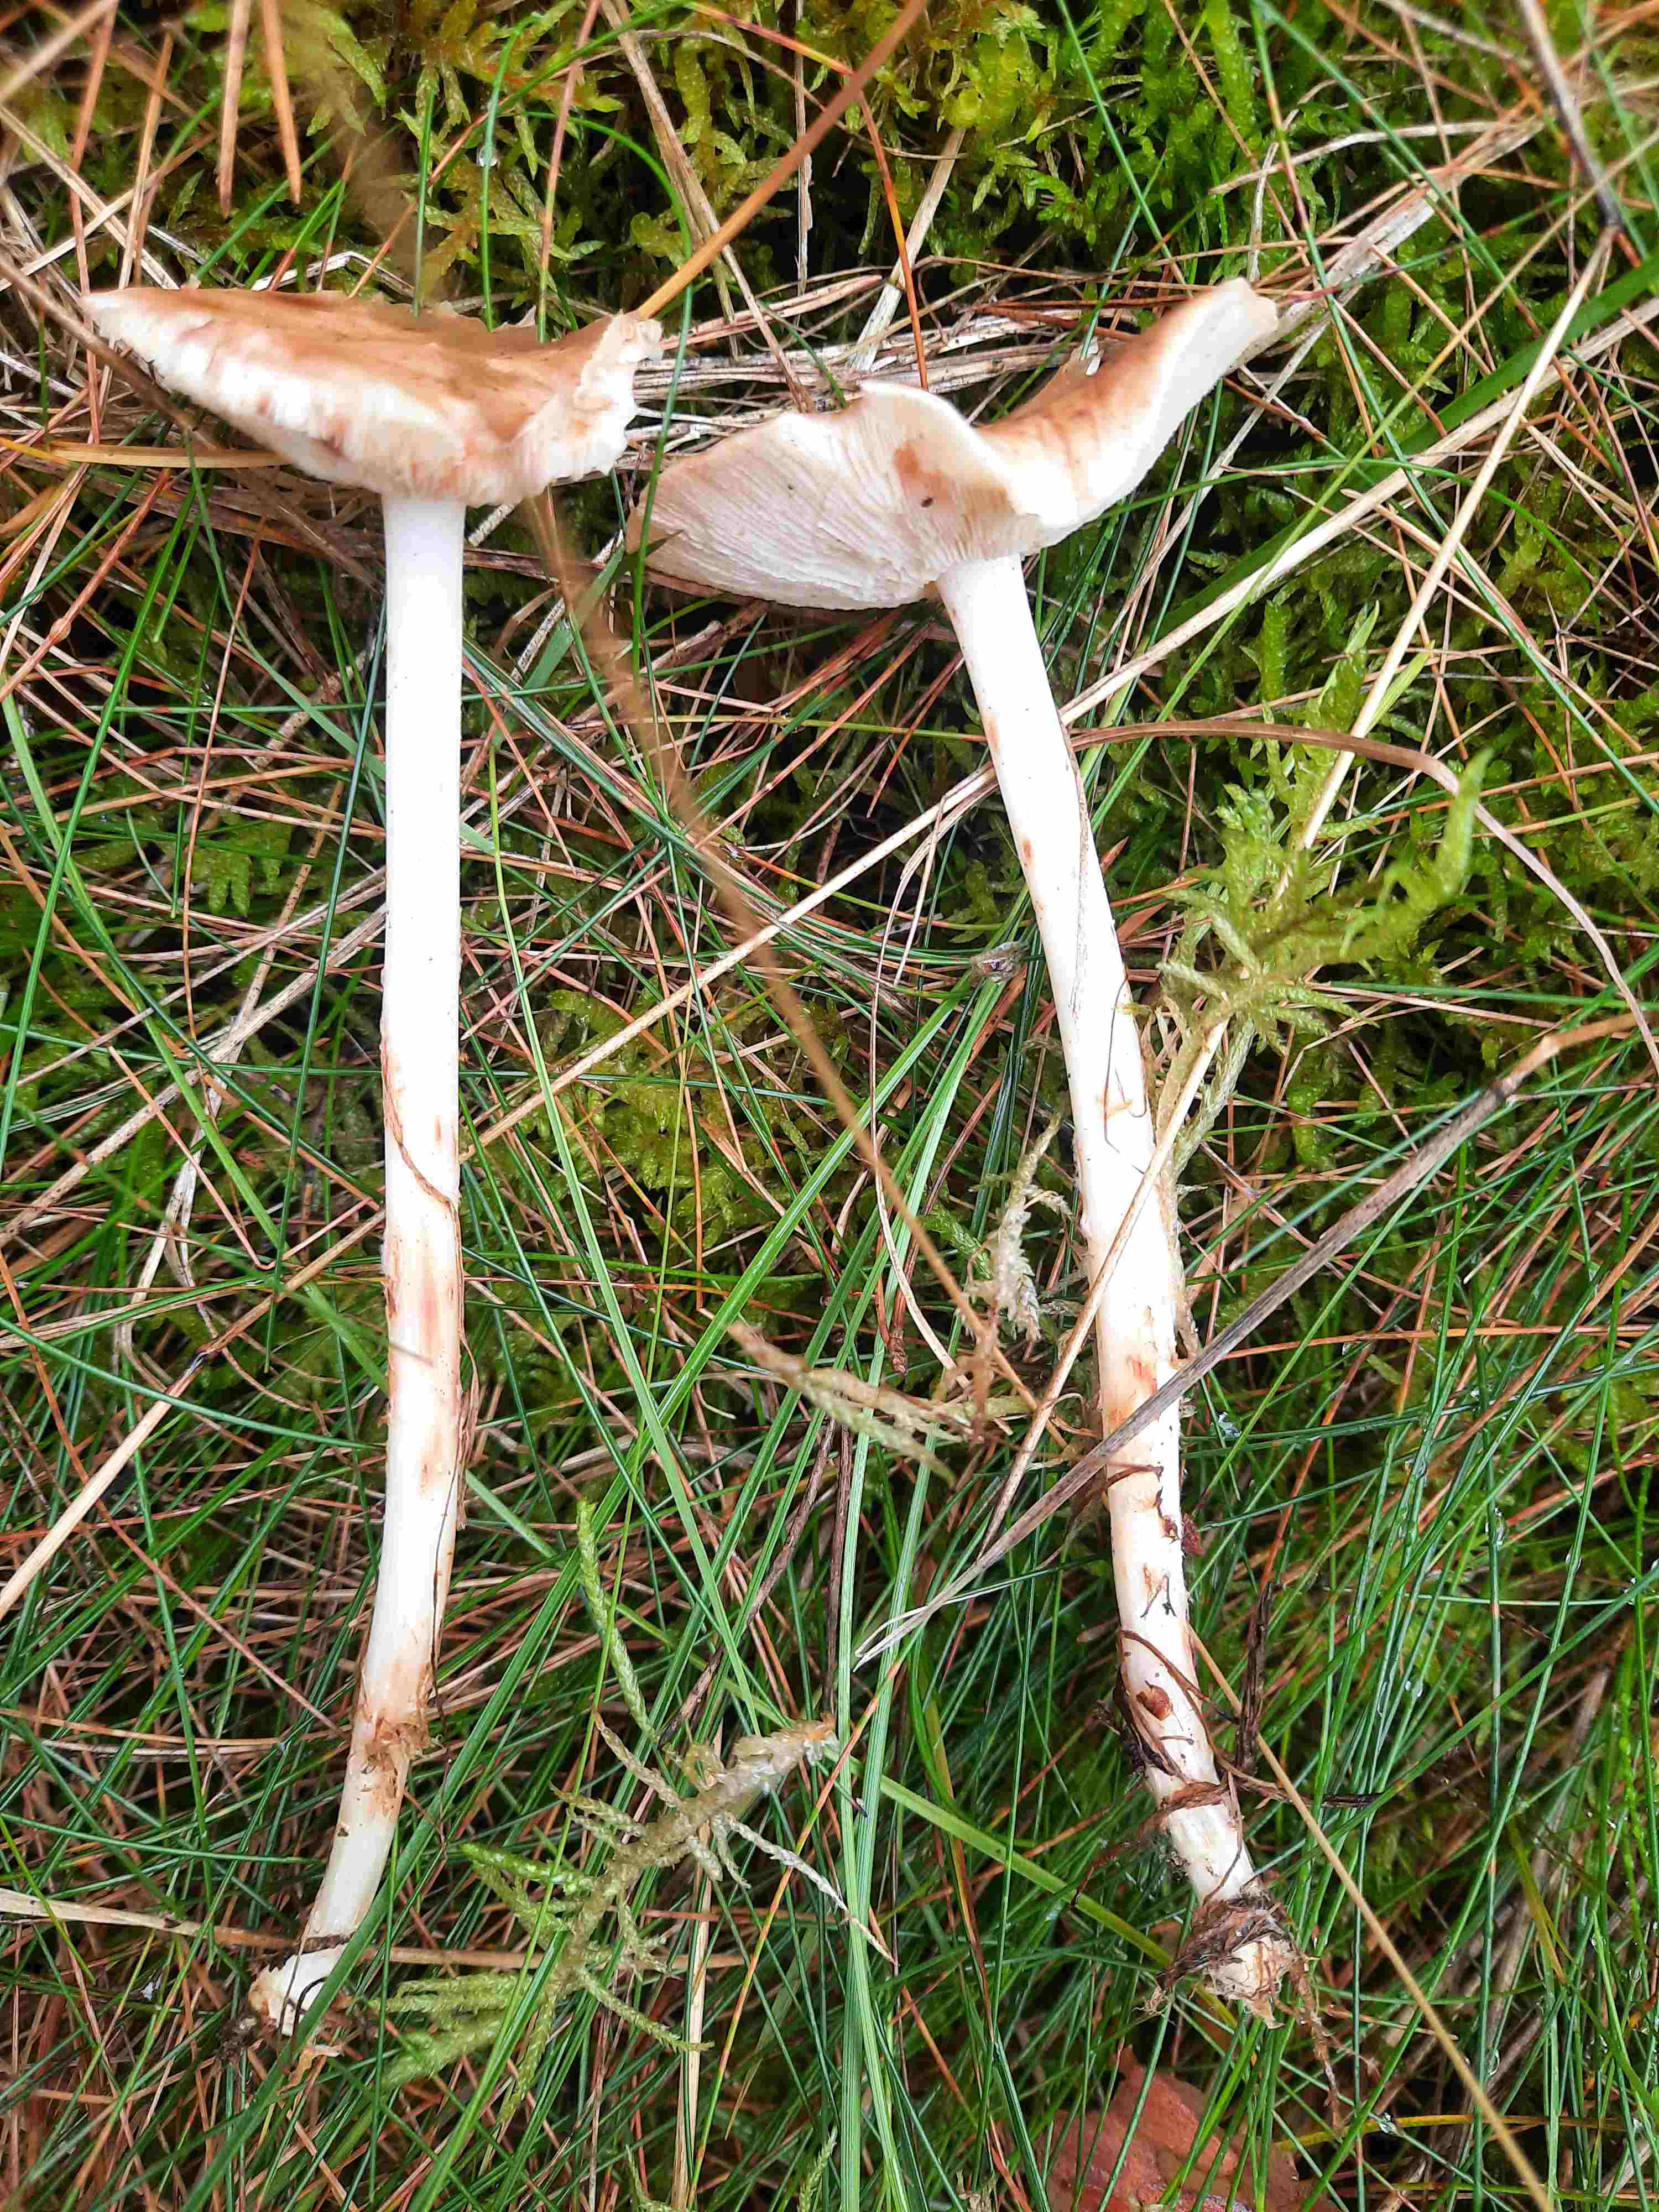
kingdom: Fungi
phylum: Basidiomycota
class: Agaricomycetes
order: Agaricales
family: Omphalotaceae
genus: Rhodocollybia
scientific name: Rhodocollybia maculata
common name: plettet fladhat
